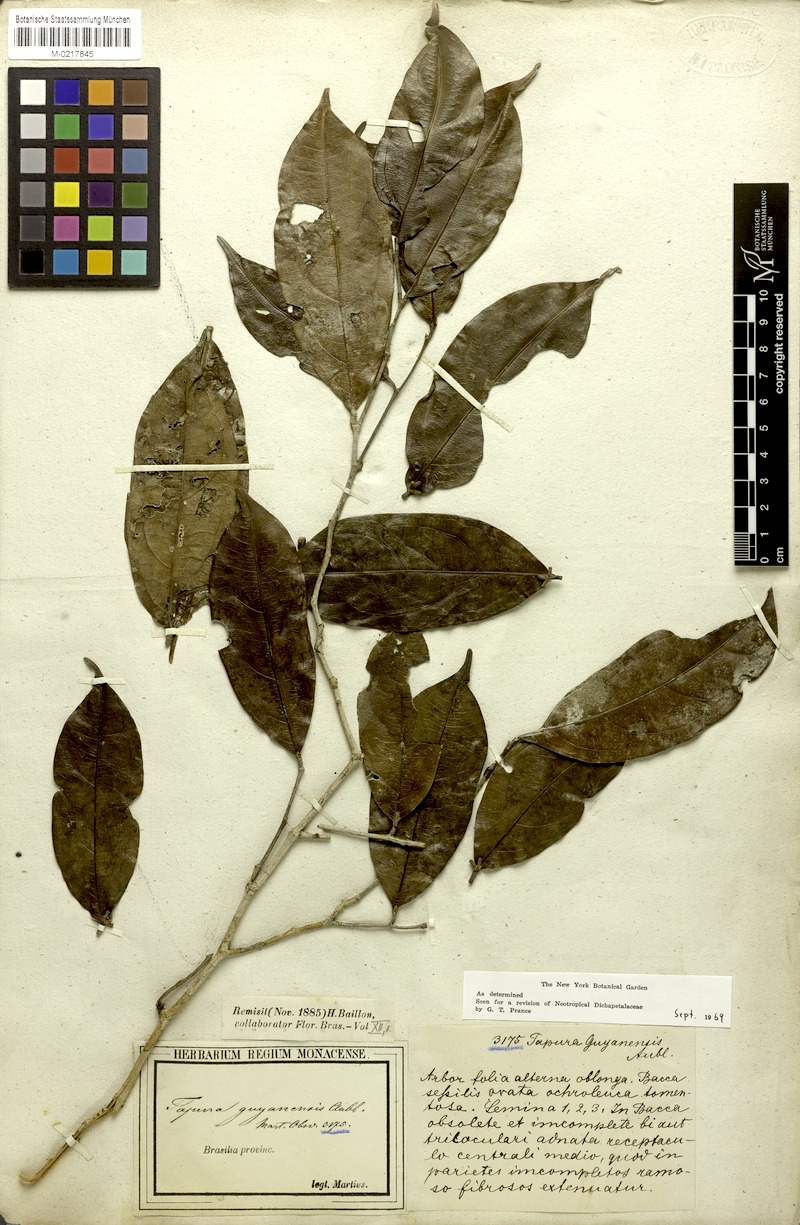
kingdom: Plantae
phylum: Tracheophyta
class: Magnoliopsida
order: Malpighiales
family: Dichapetalaceae
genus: Tapura
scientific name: Tapura guianensis
